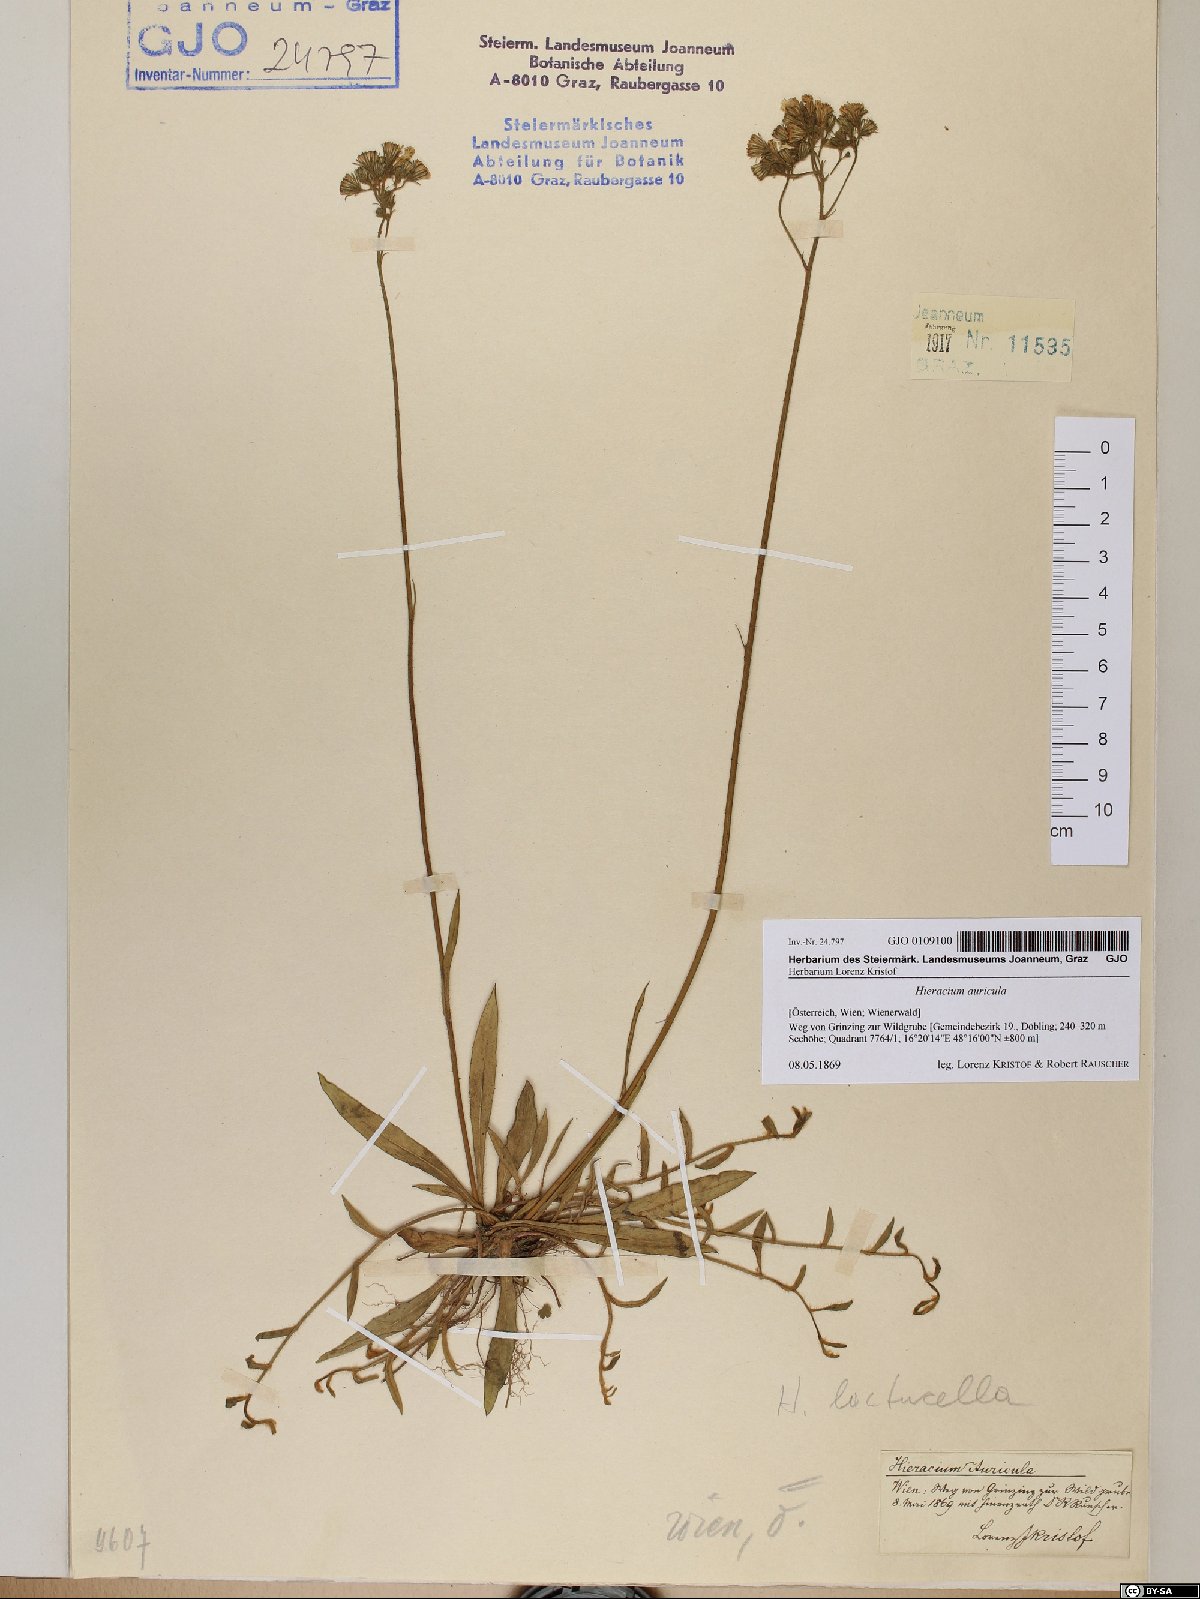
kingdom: Plantae
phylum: Tracheophyta
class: Magnoliopsida
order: Asterales
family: Asteraceae
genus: Hieracium
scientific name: Hieracium auricula
